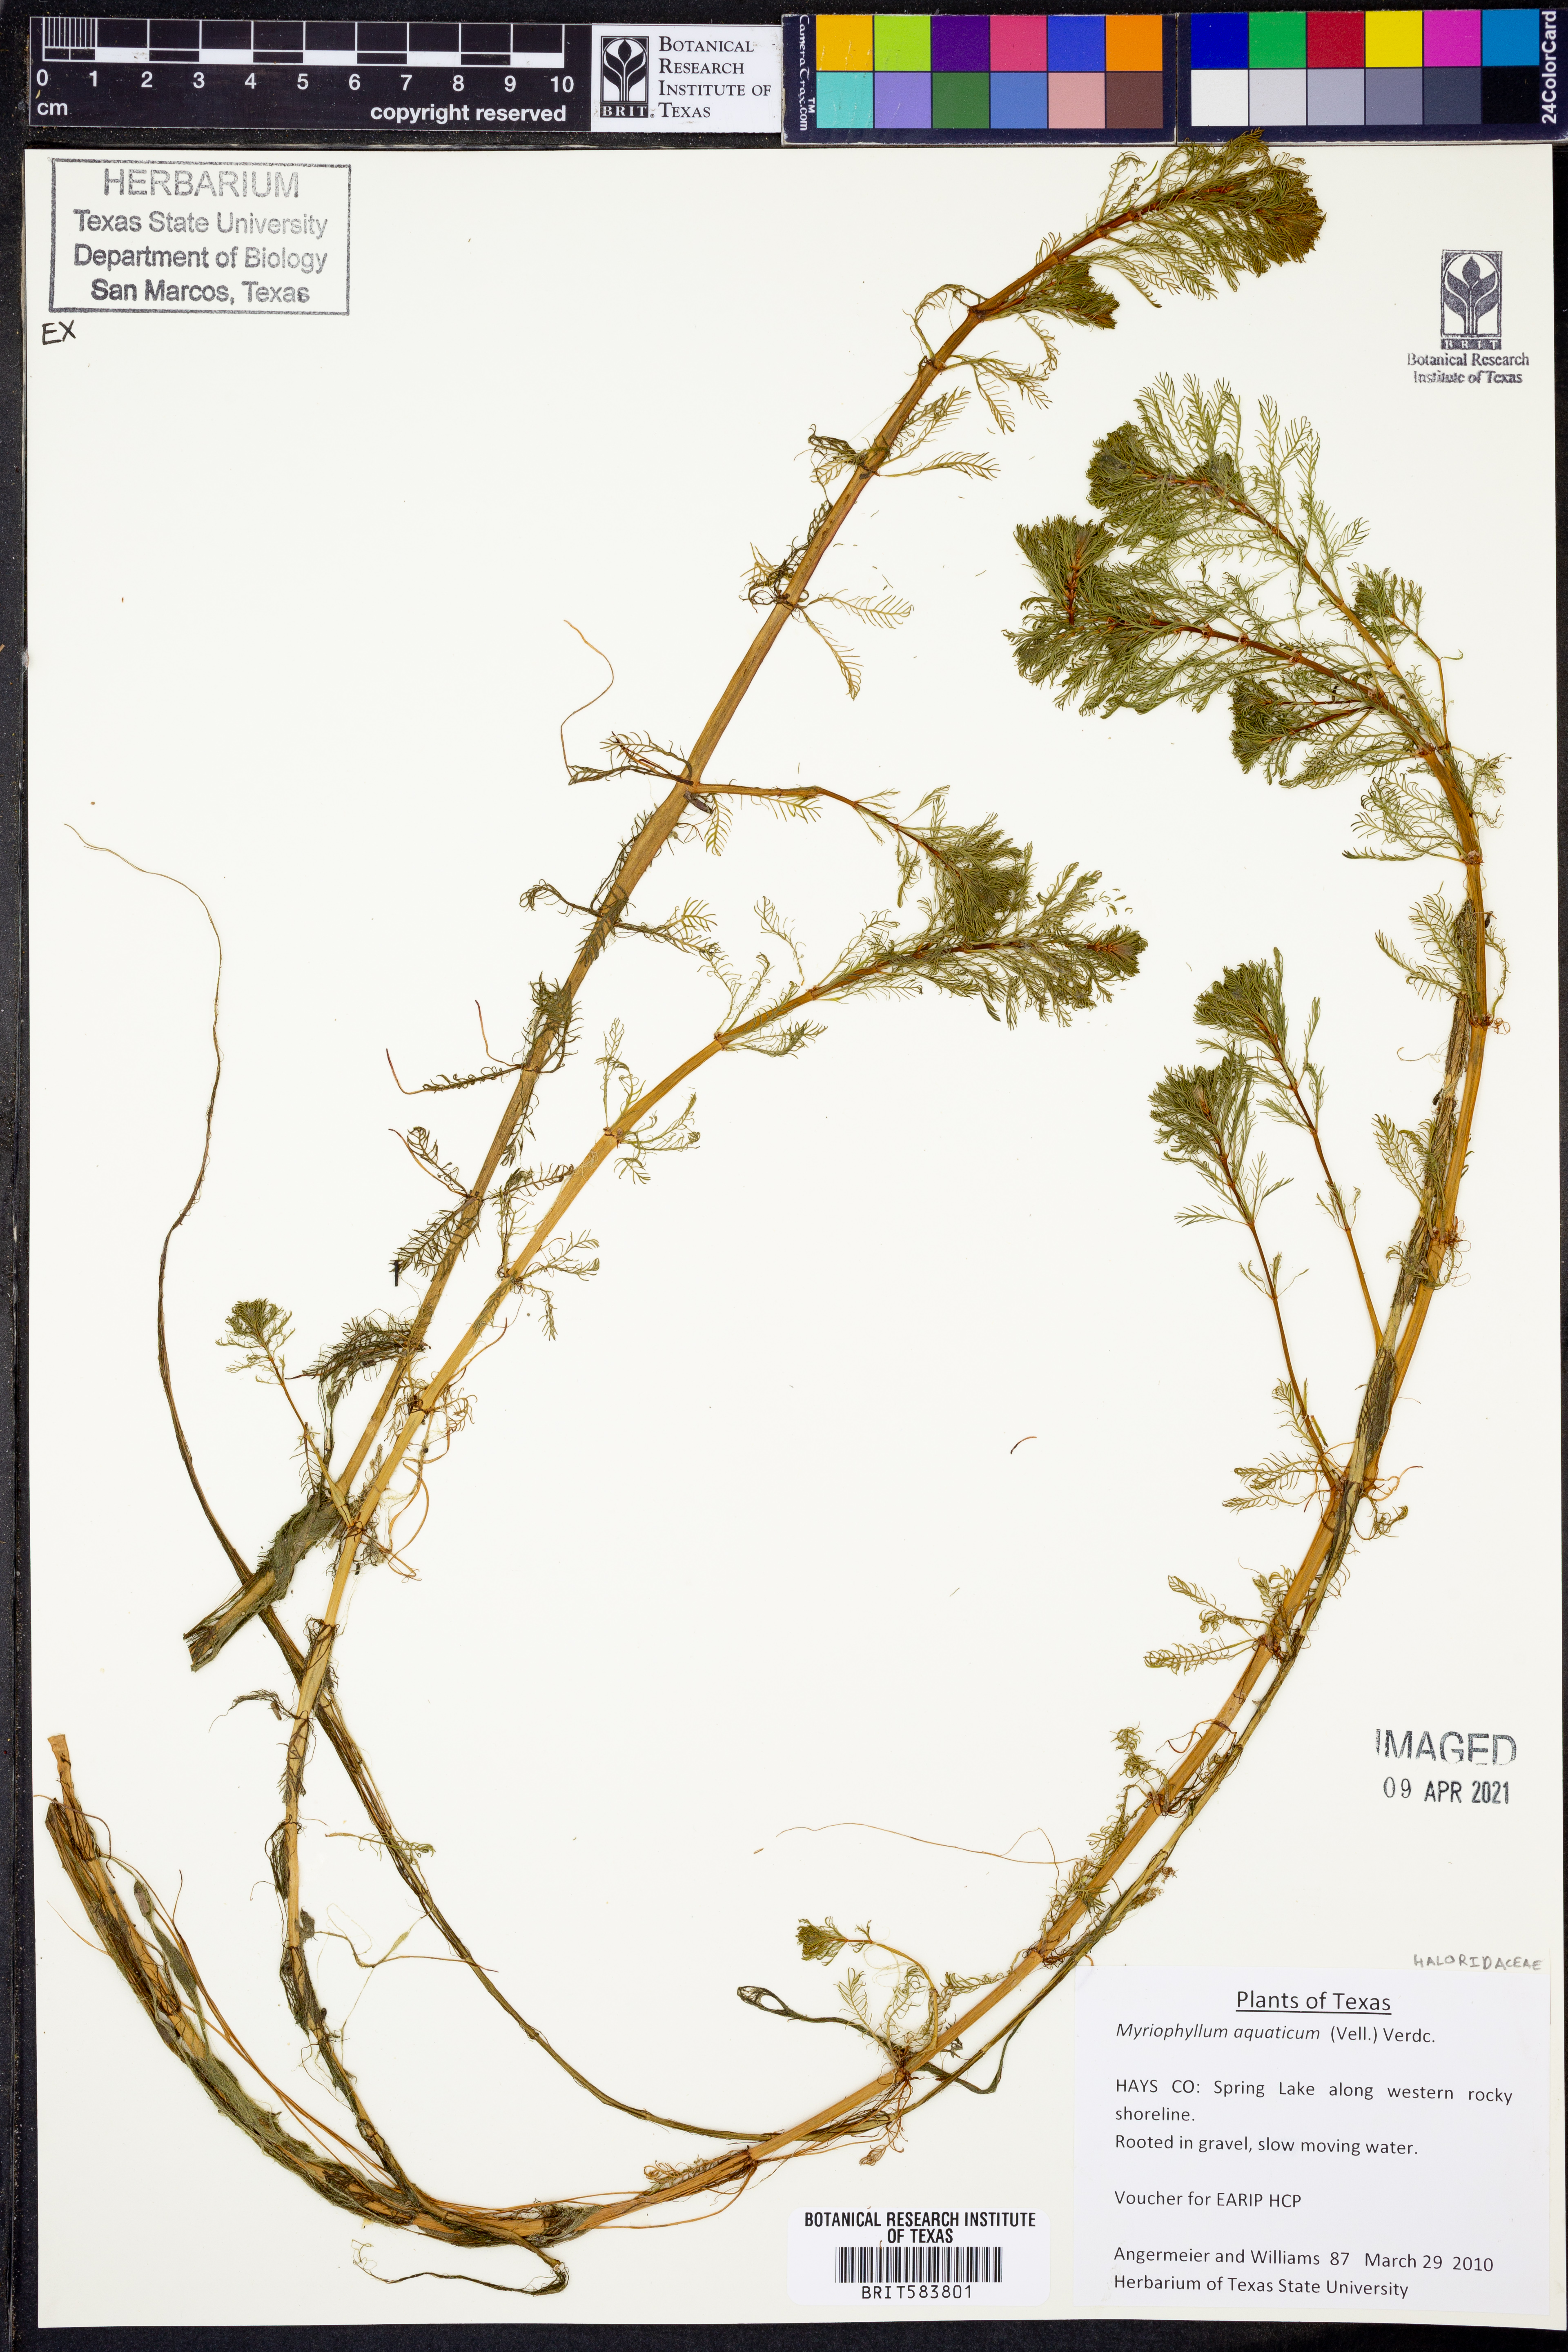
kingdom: Plantae
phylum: Tracheophyta
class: Magnoliopsida
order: Saxifragales
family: Haloragaceae
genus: Myriophyllum
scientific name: Myriophyllum aquaticum
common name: Parrot's feather
